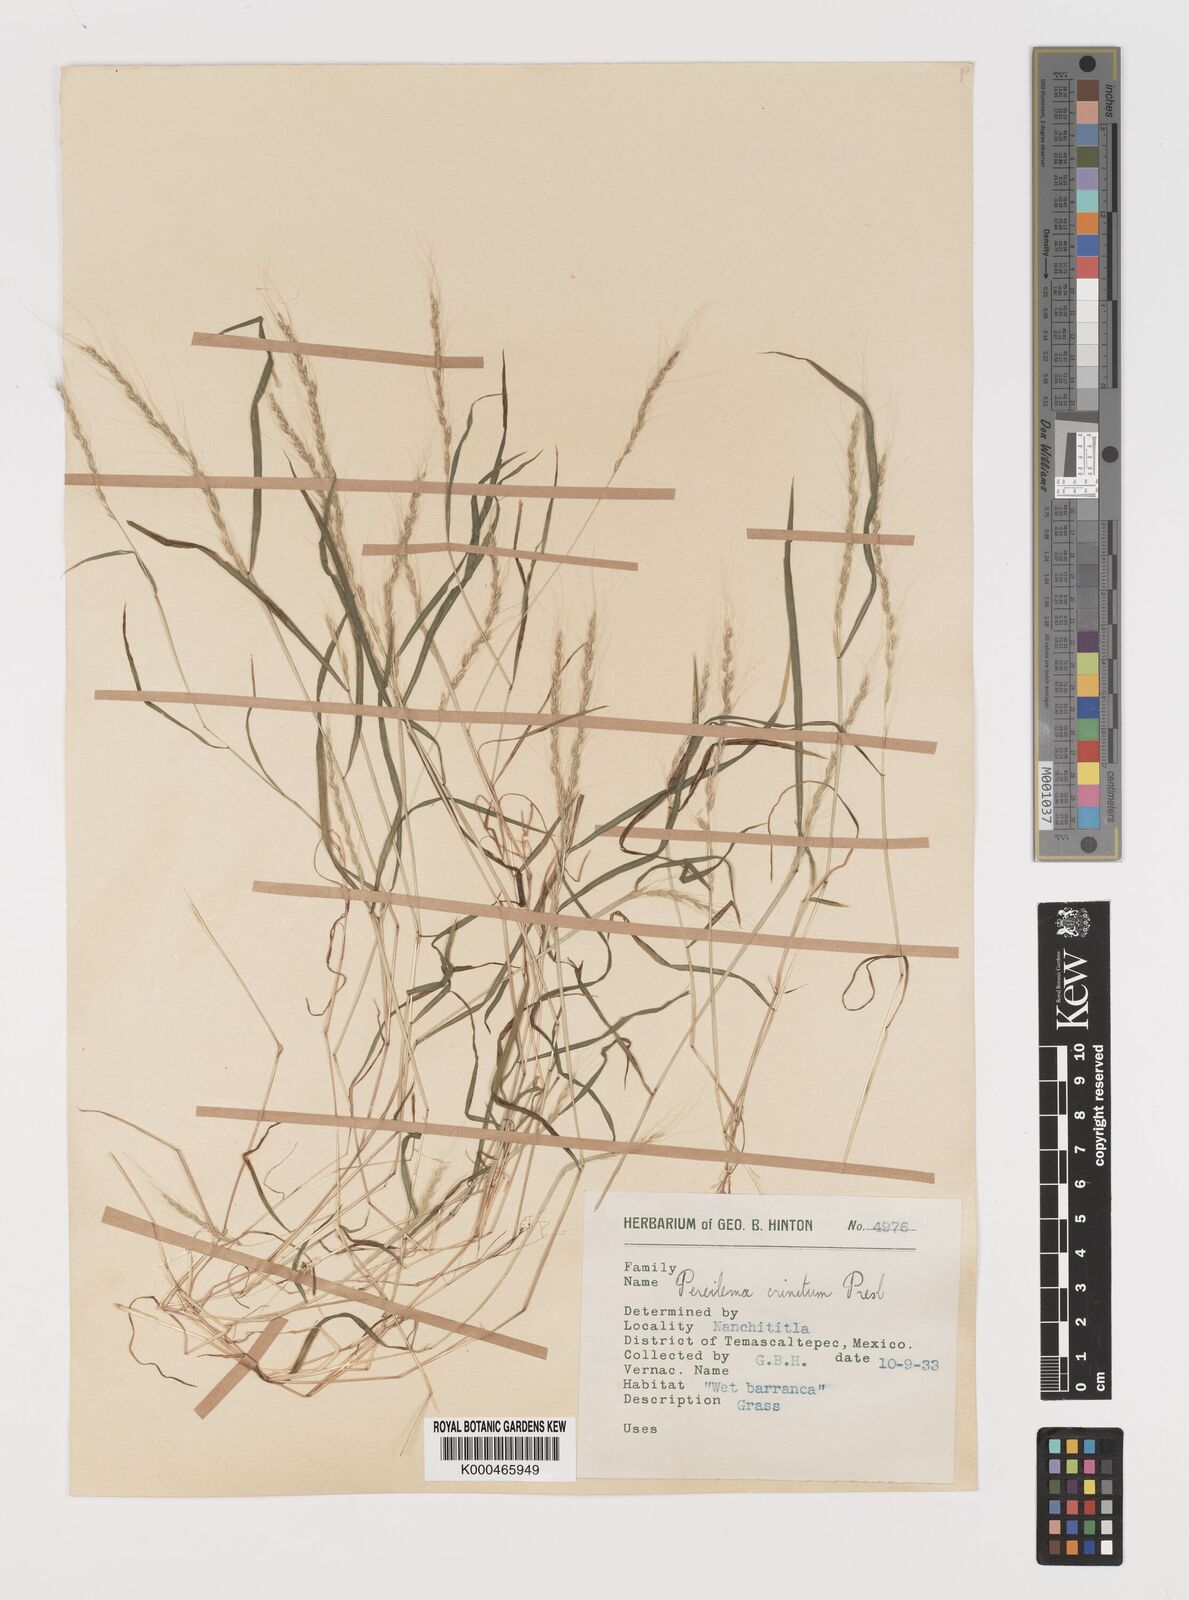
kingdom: Plantae
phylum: Tracheophyta
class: Liliopsida
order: Poales
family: Poaceae
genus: Muhlenbergia
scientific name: Muhlenbergia pereilema
